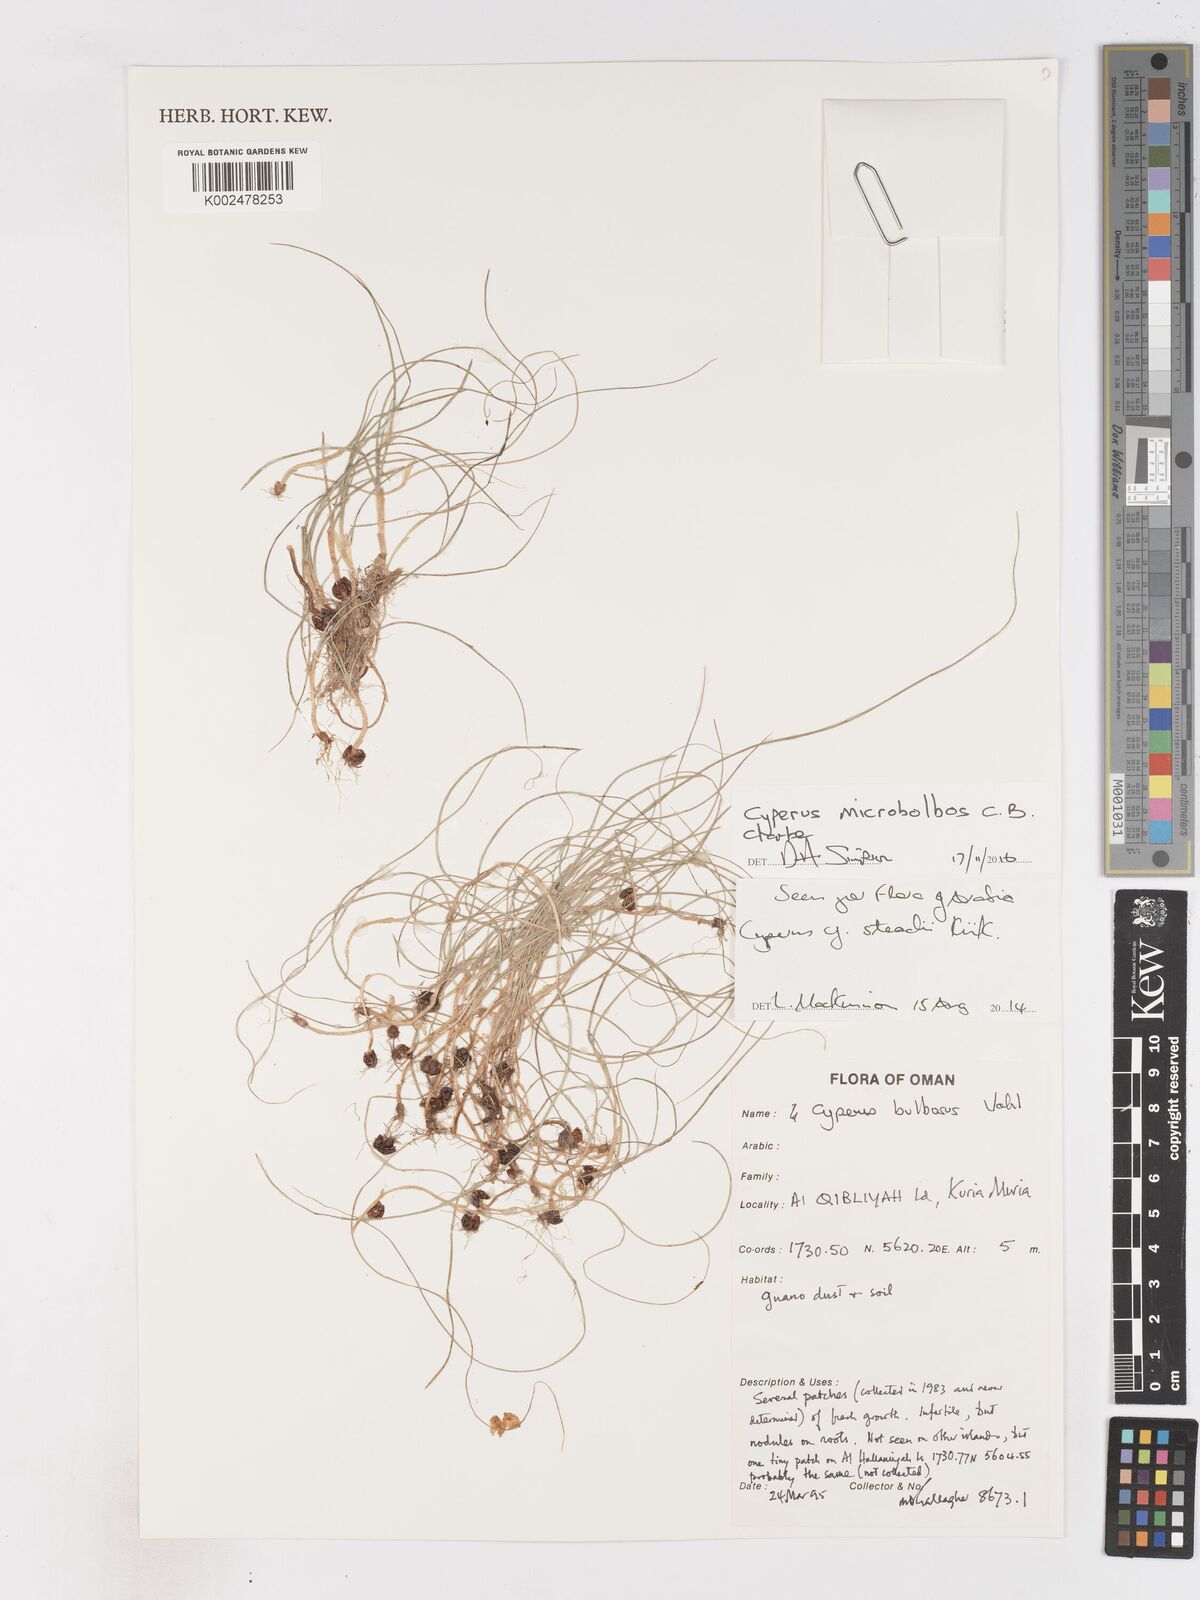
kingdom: Plantae
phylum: Tracheophyta
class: Liliopsida
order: Poales
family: Cyperaceae
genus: Cyperus
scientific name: Cyperus microbolbos
